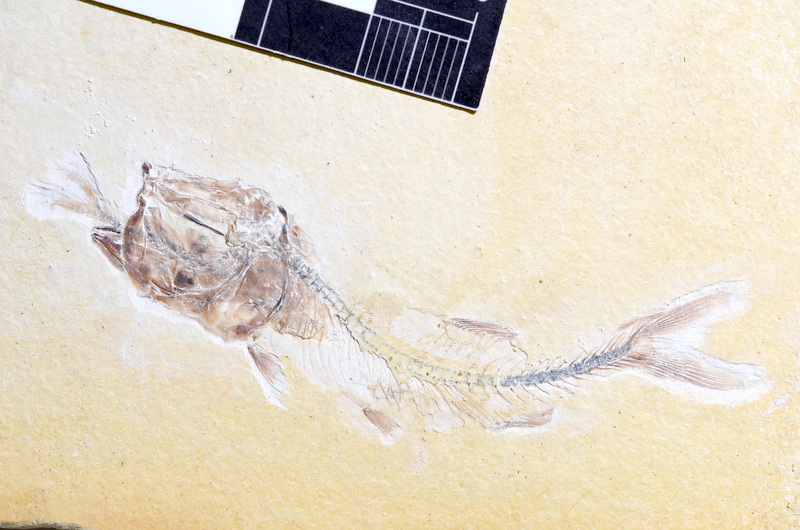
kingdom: Animalia
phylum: Chordata
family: Ascalaboidae
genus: Ebertichthys
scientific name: Ebertichthys ettlingensis
